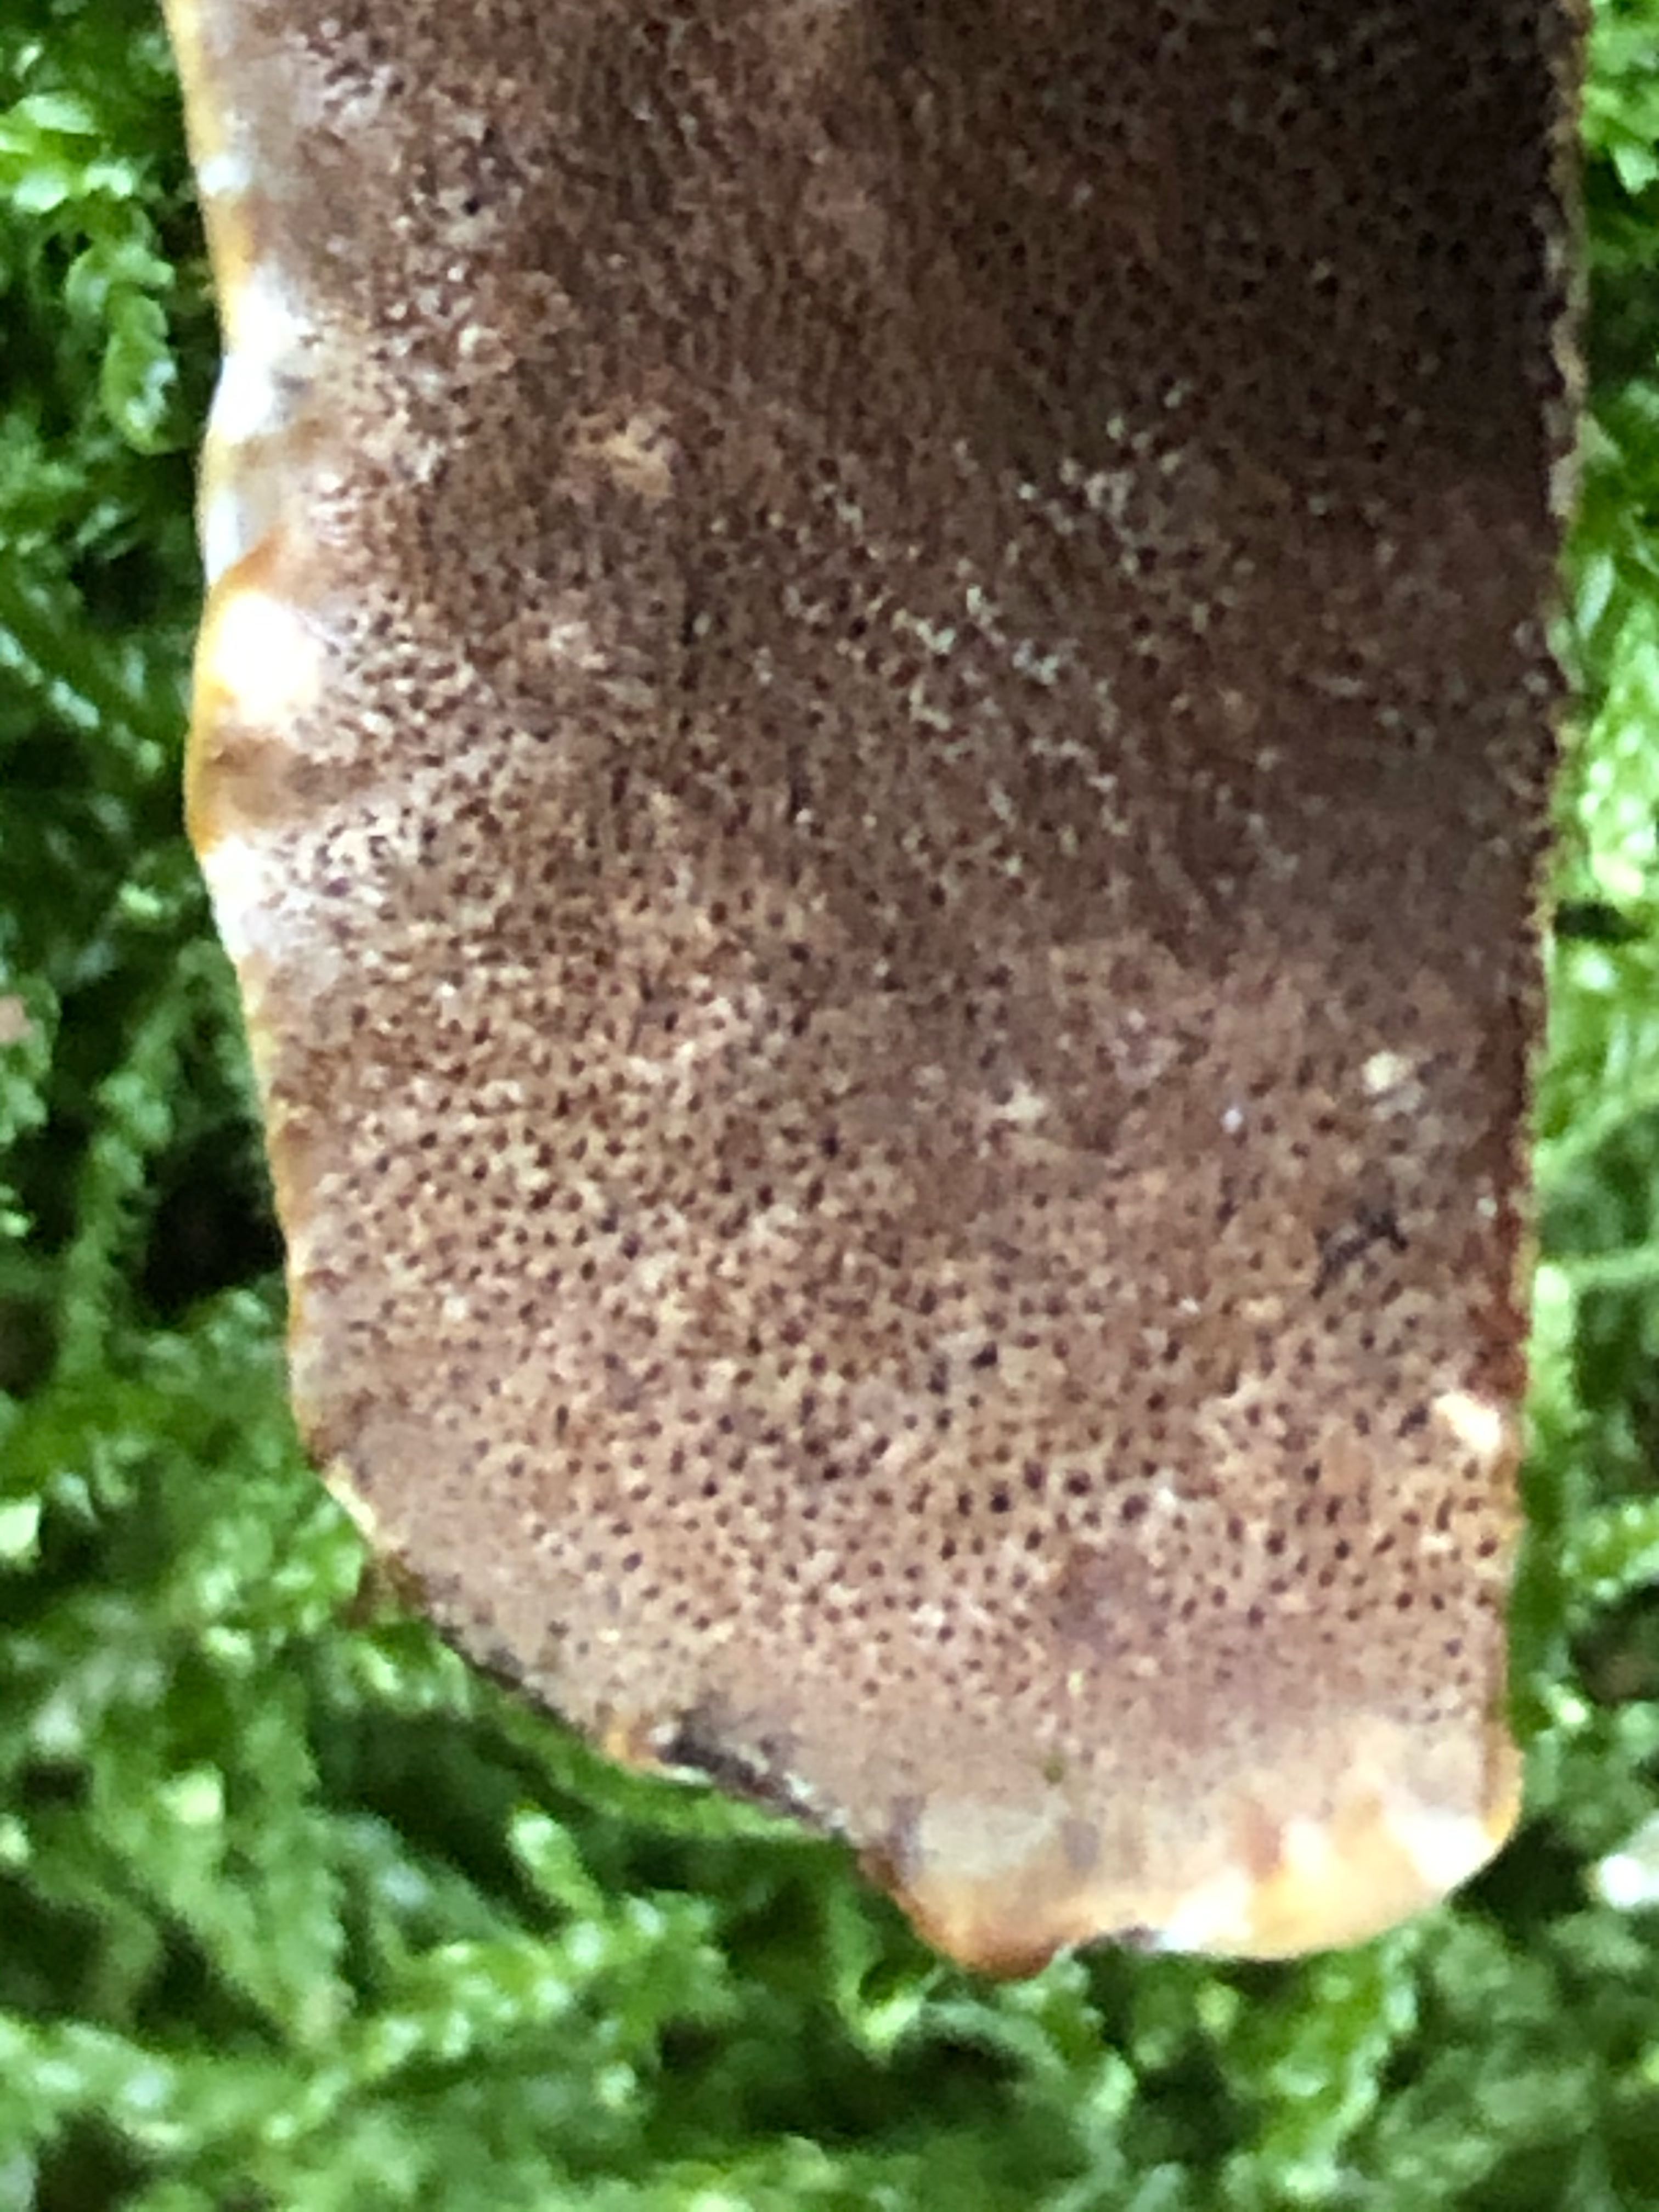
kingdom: Fungi
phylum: Basidiomycota
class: Agaricomycetes
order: Hymenochaetales
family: Hymenochaetaceae
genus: Xanthoporia
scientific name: Xanthoporia radiata
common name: elle-spejlporesvamp
